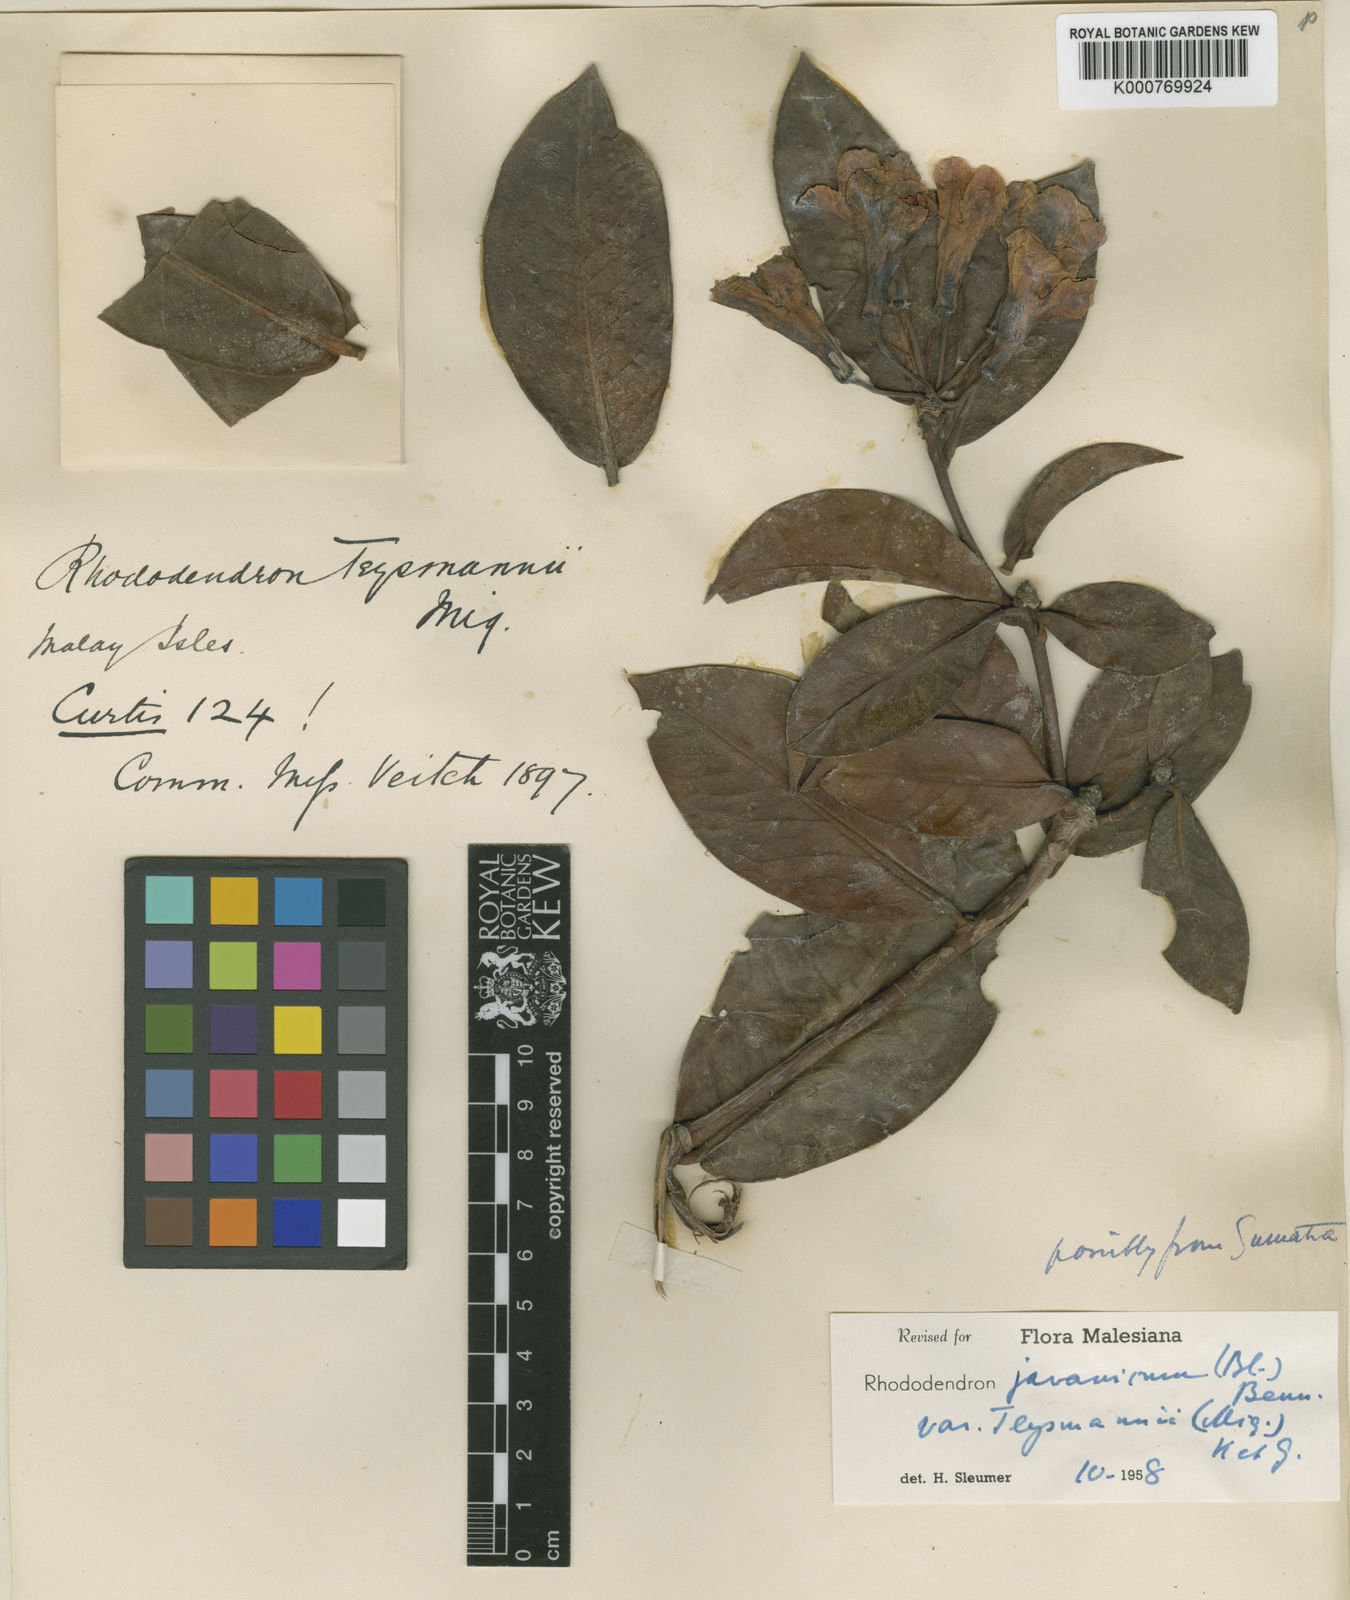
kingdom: Plantae
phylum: Tracheophyta
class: Magnoliopsida
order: Ericales
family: Ericaceae
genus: Rhododendron
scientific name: Rhododendron javanicum
